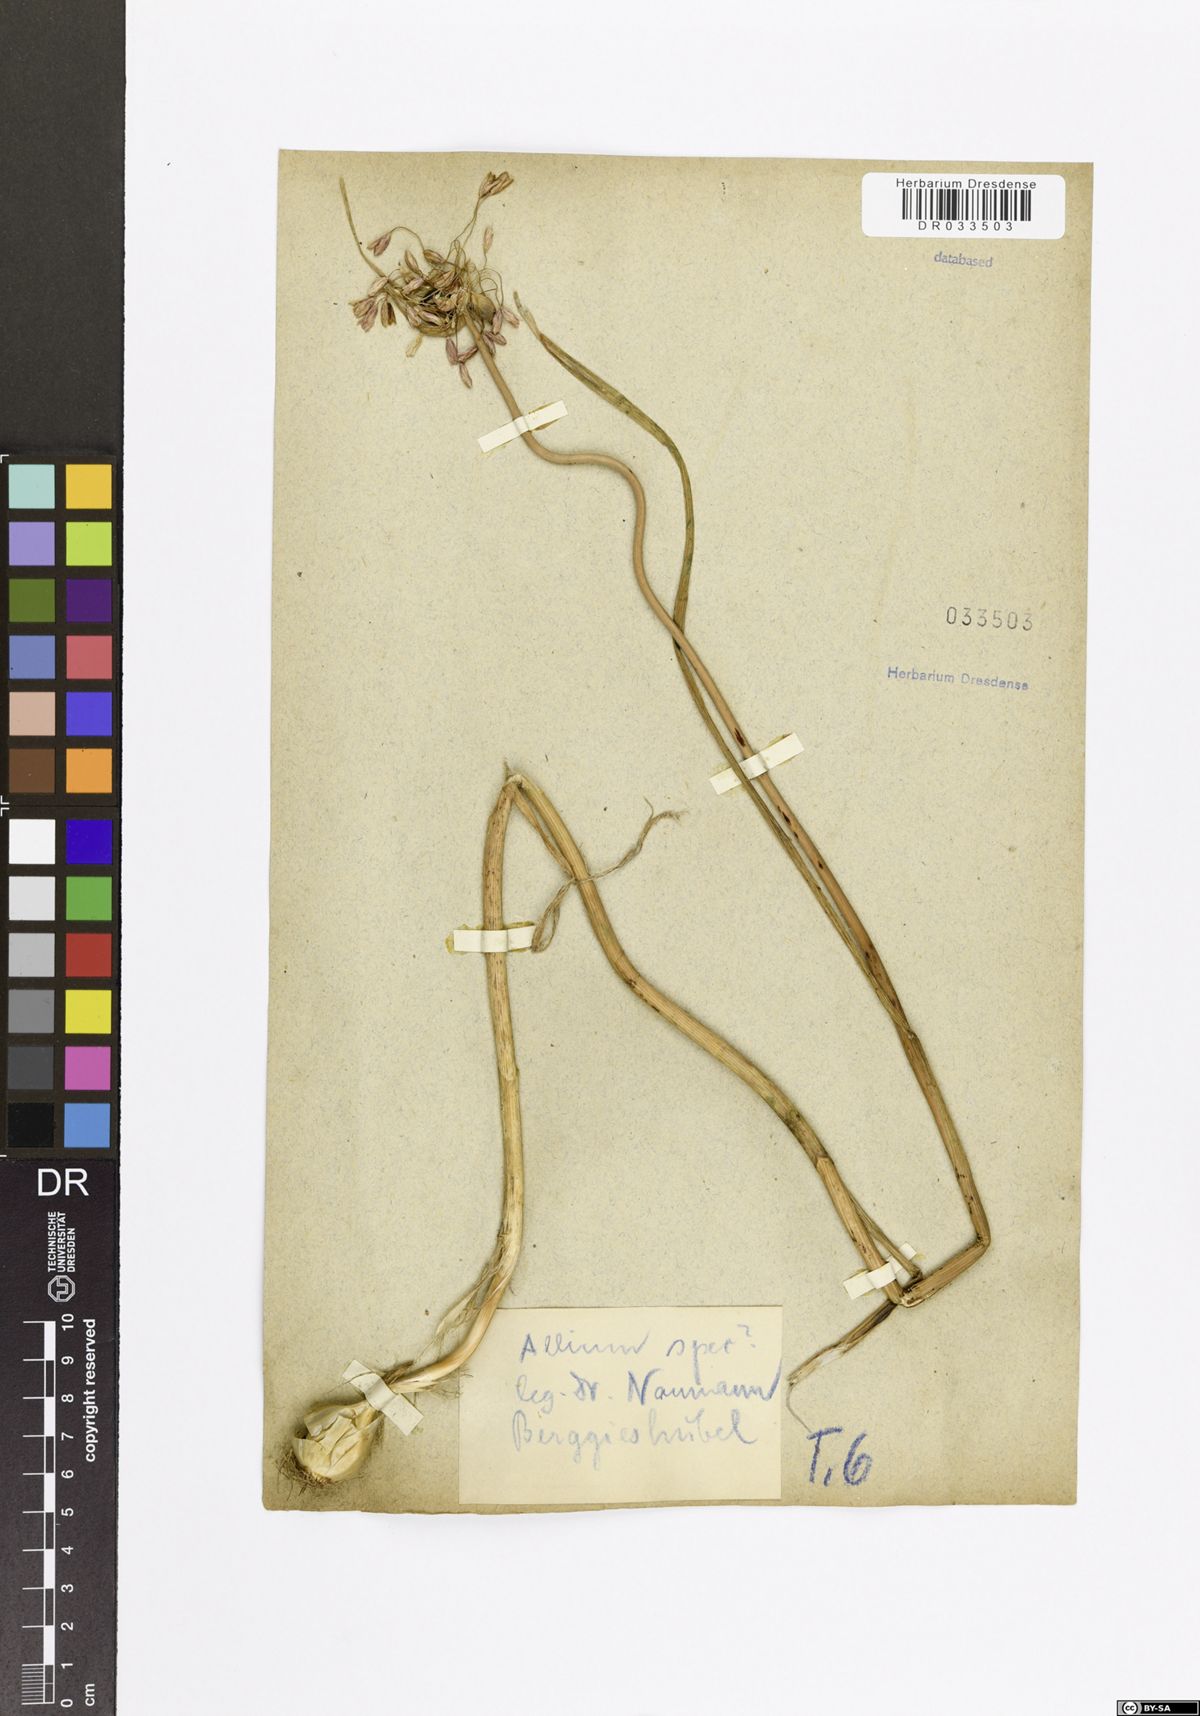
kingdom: Plantae
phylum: Tracheophyta
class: Liliopsida
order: Asparagales
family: Amaryllidaceae
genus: Allium
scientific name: Allium
